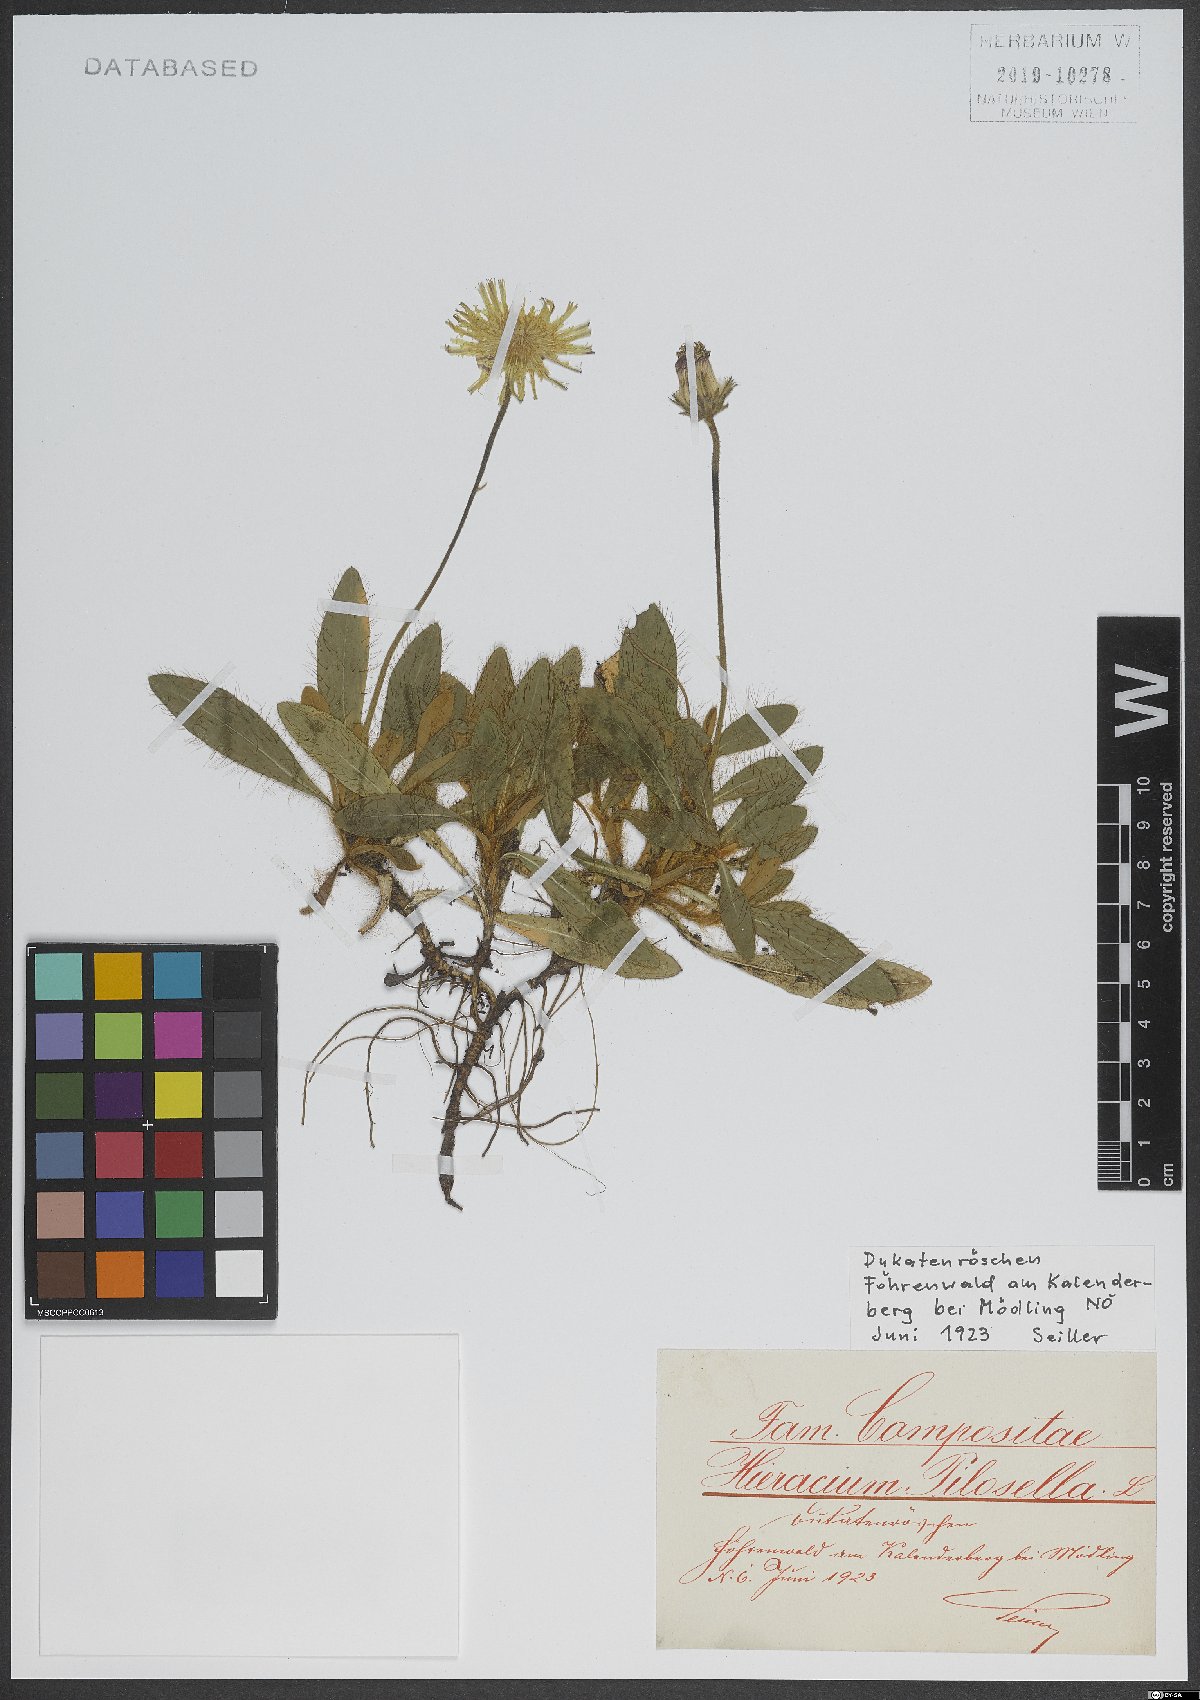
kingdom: Plantae
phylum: Tracheophyta
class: Magnoliopsida
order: Asterales
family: Asteraceae
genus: Pilosella
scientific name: Pilosella officinarum
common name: Mouse-ear hawkweed
